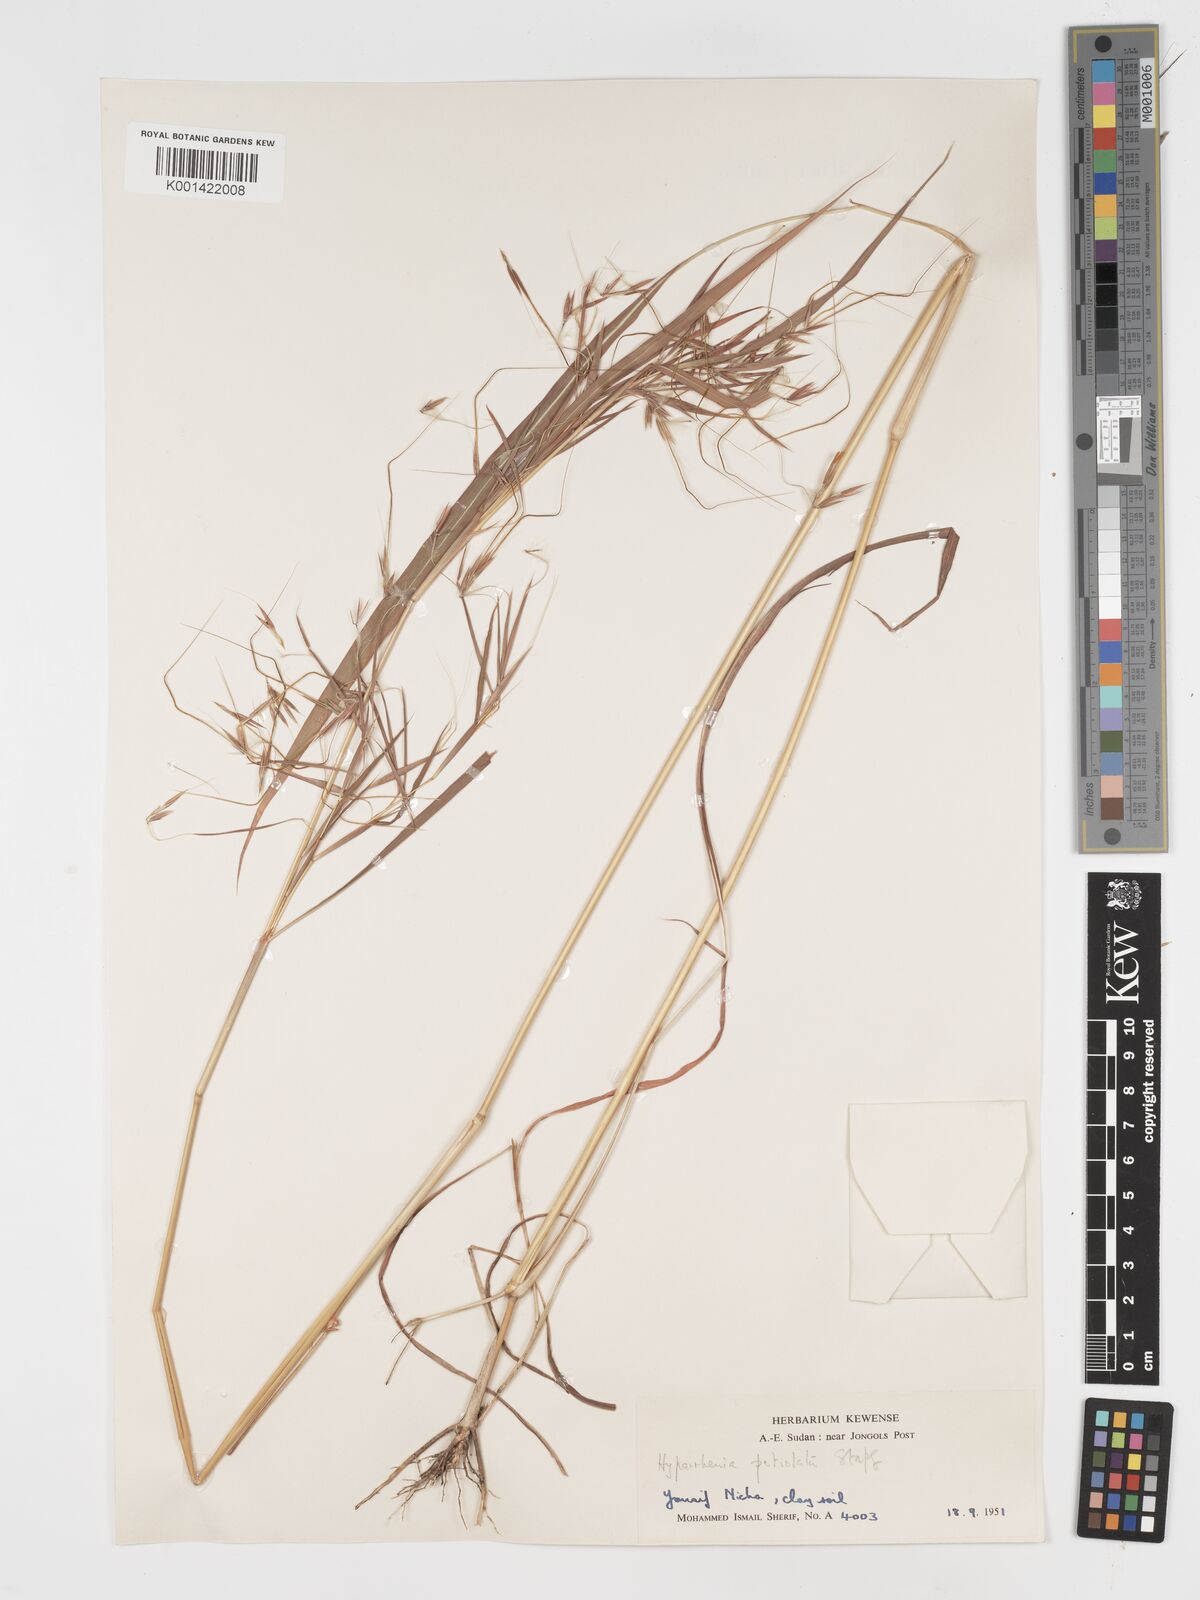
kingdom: Plantae
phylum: Tracheophyta
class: Liliopsida
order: Poales
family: Poaceae
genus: Hyparrhenia
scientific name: Hyparrhenia confinis
